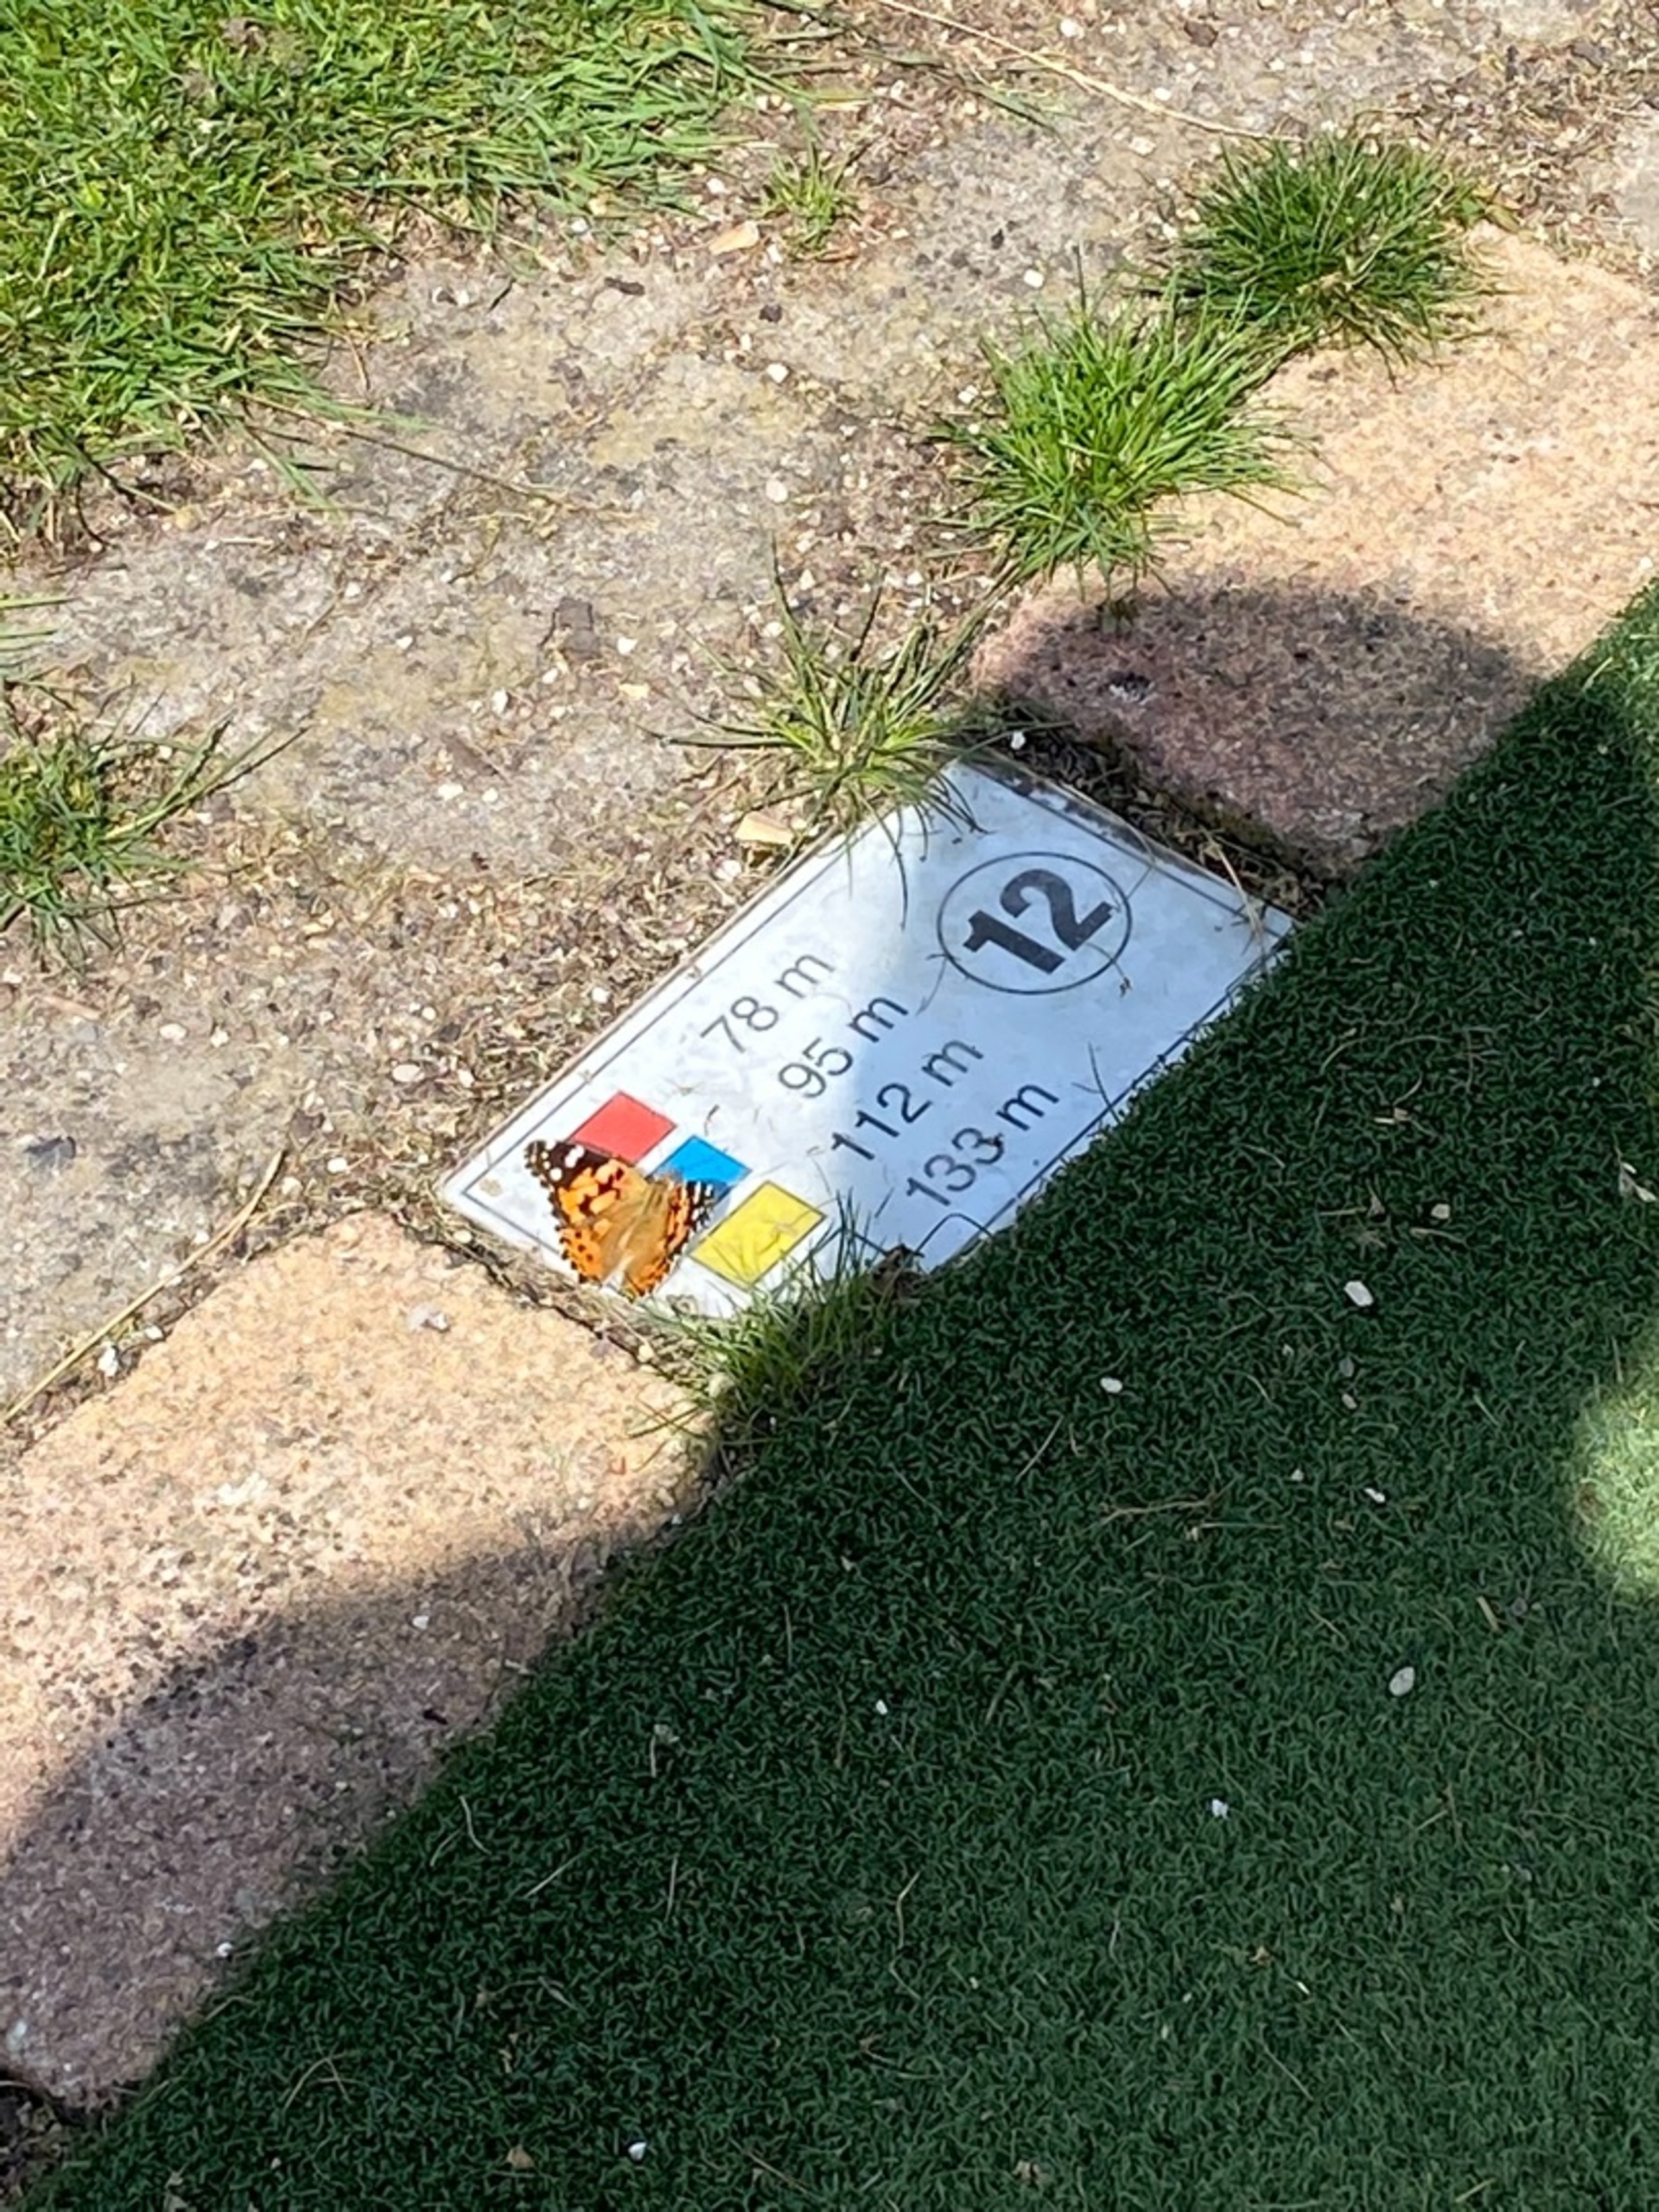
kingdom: Animalia
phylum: Arthropoda
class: Insecta
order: Lepidoptera
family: Nymphalidae
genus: Vanessa
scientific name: Vanessa cardui
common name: Tidselsommerfugl
